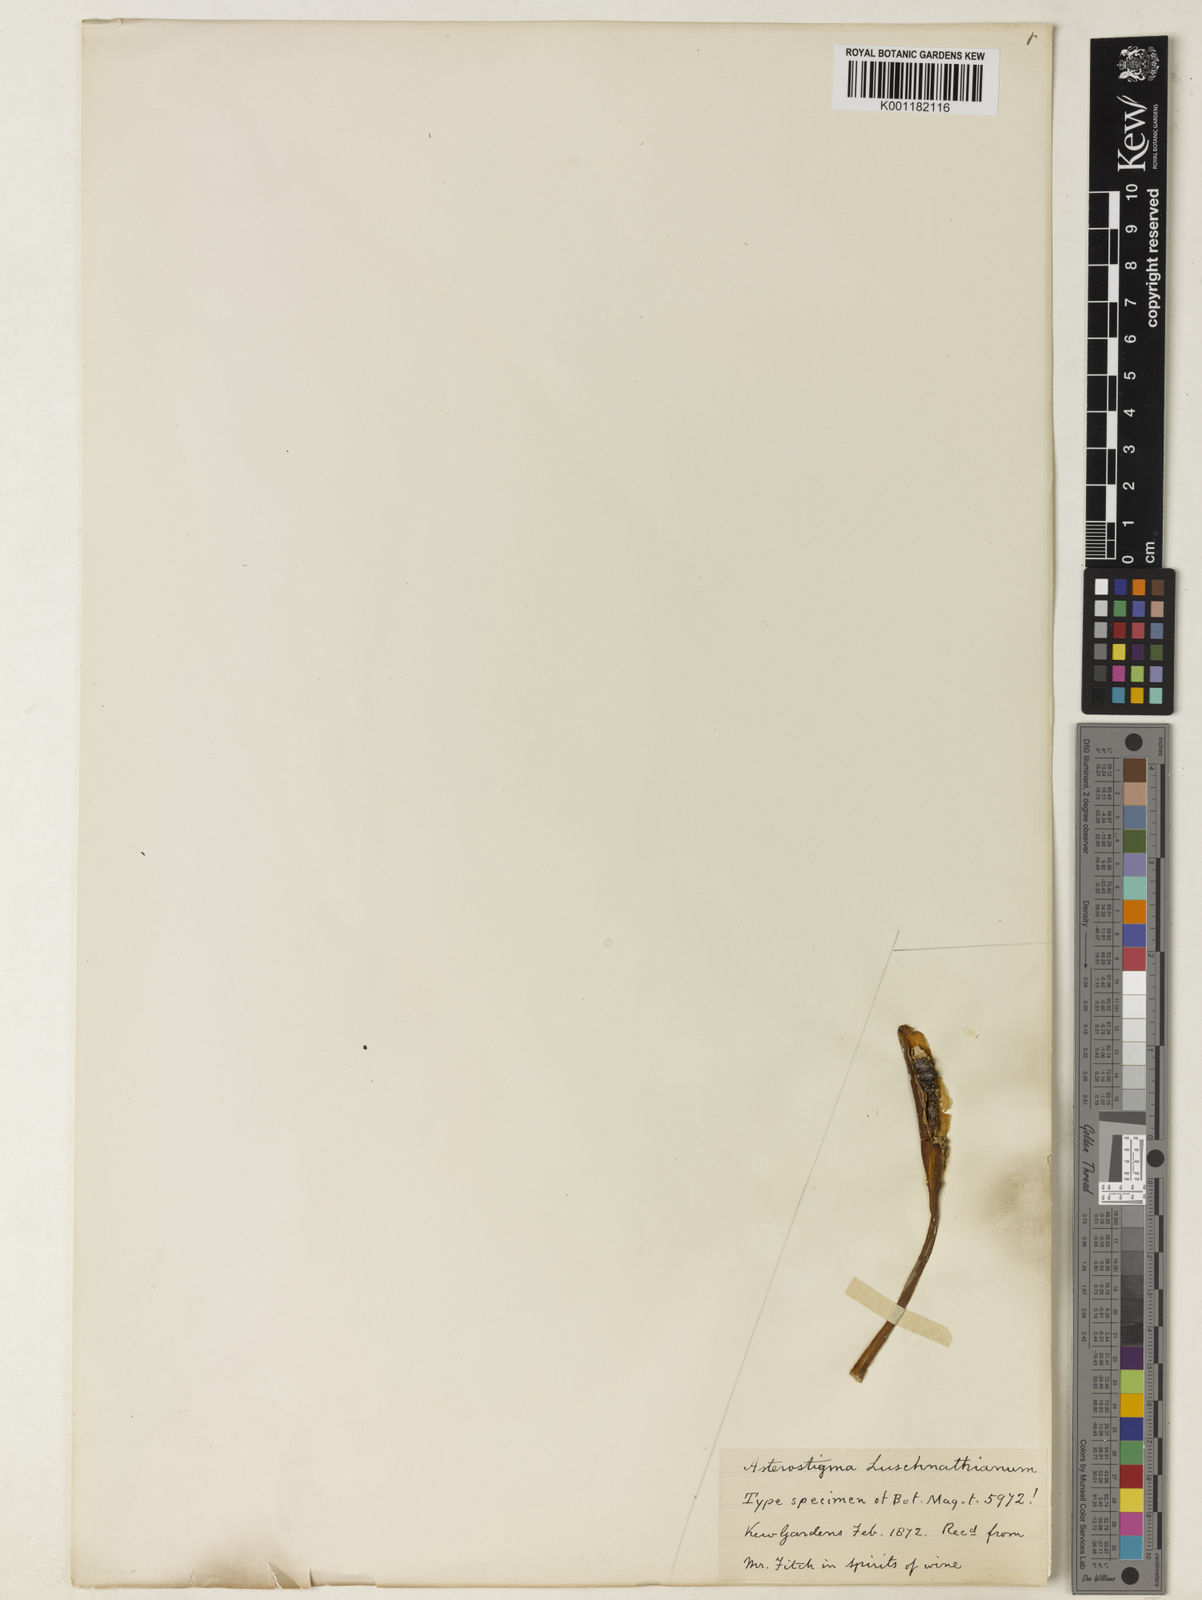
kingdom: Plantae
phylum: Tracheophyta
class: Liliopsida
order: Alismatales
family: Araceae
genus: Asterostigma
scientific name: Asterostigma luridum
